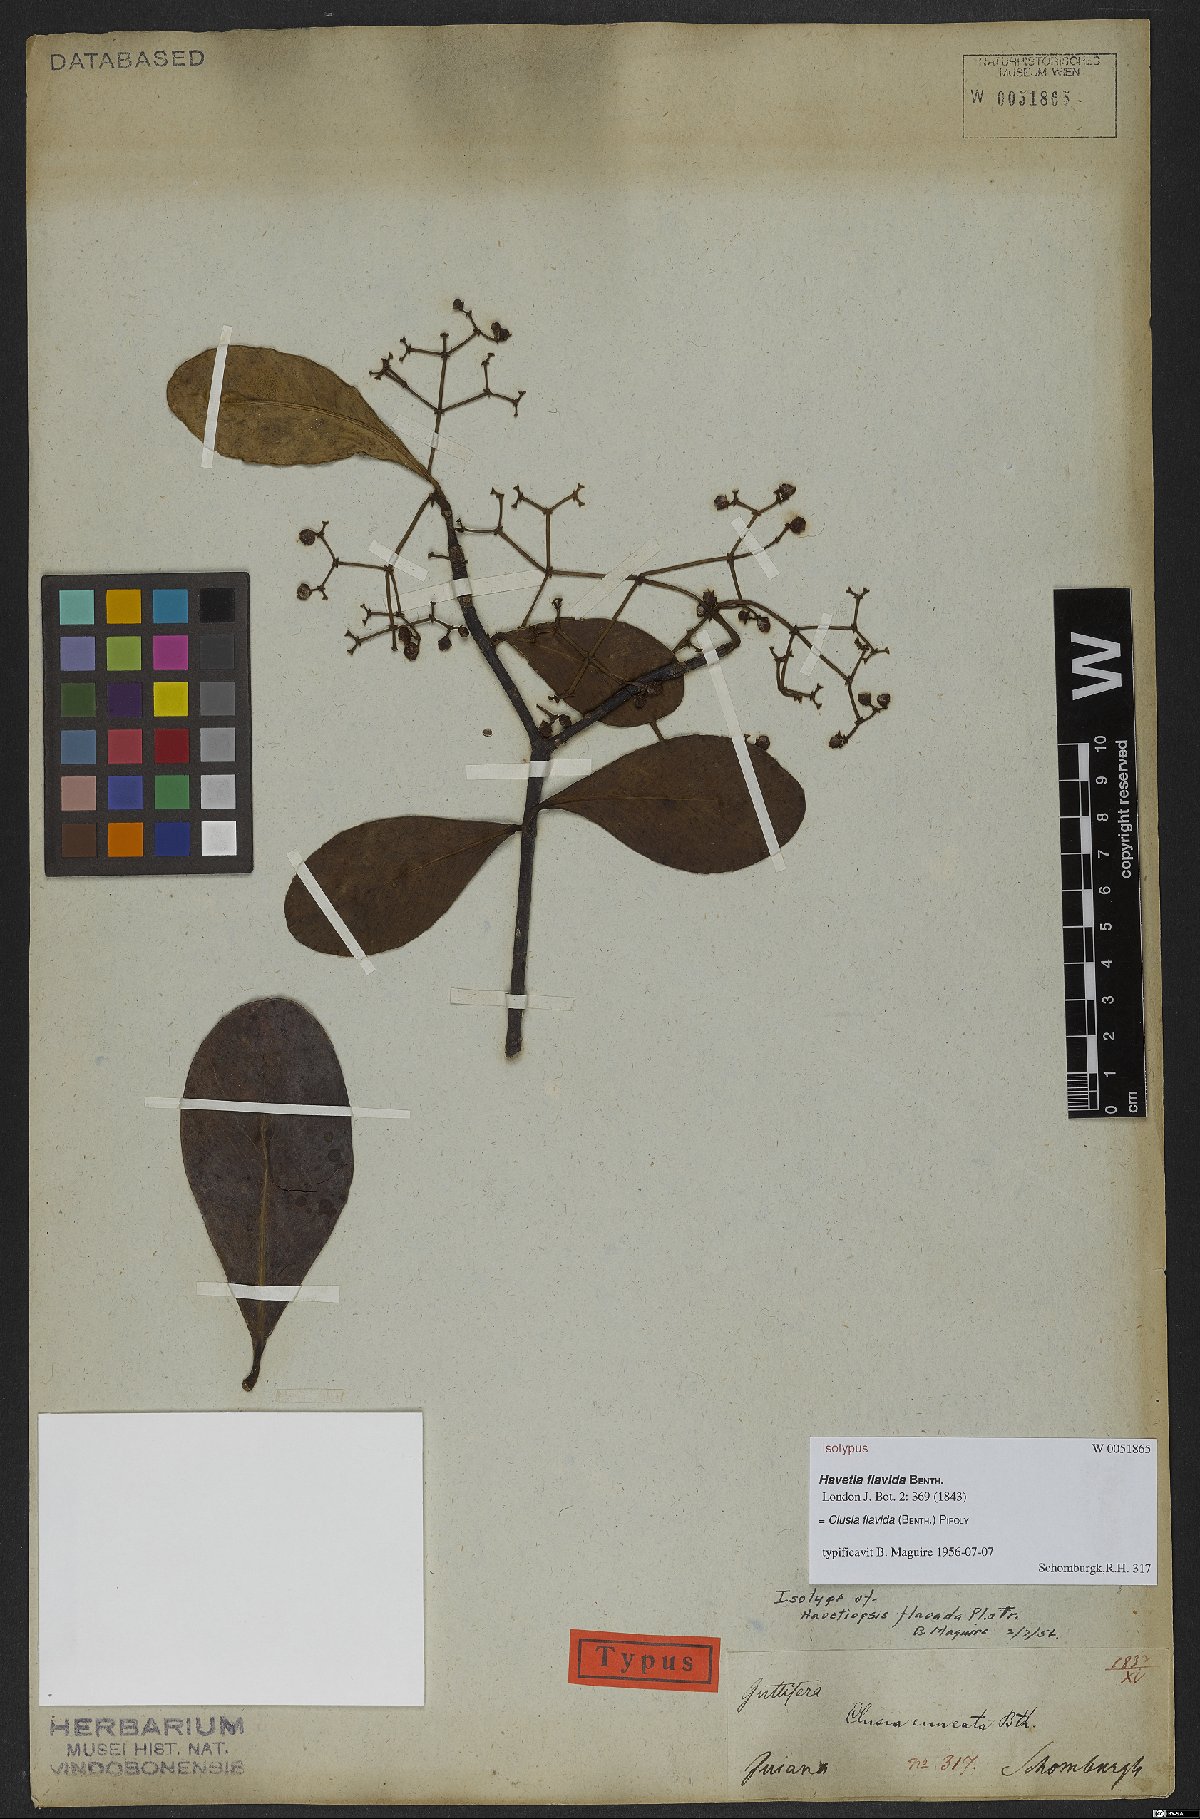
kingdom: Plantae
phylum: Tracheophyta
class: Magnoliopsida
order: Malpighiales
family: Clusiaceae
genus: Clusia
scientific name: Clusia flavida
